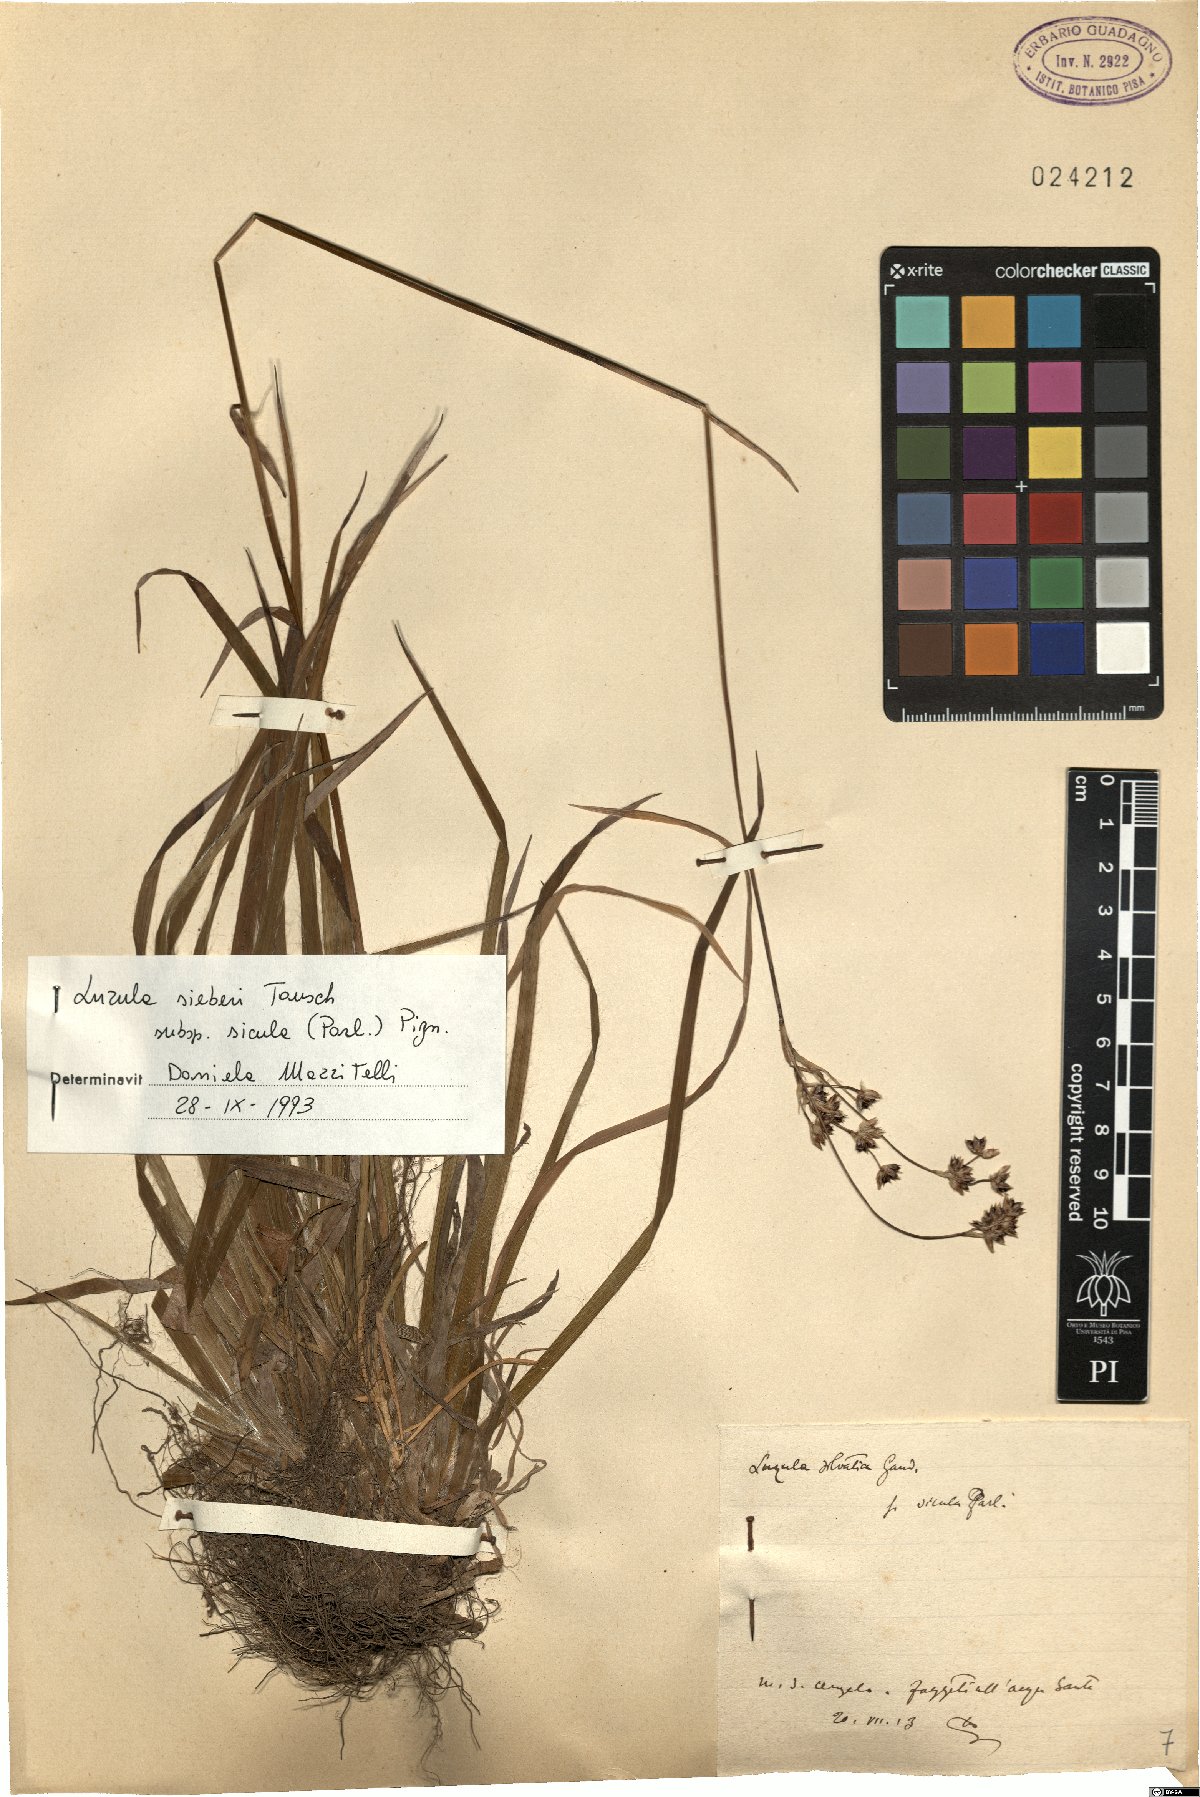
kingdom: Plantae
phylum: Tracheophyta
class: Liliopsida
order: Poales
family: Juncaceae
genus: Luzula
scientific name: Luzula sylvatica
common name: Great wood-rush
